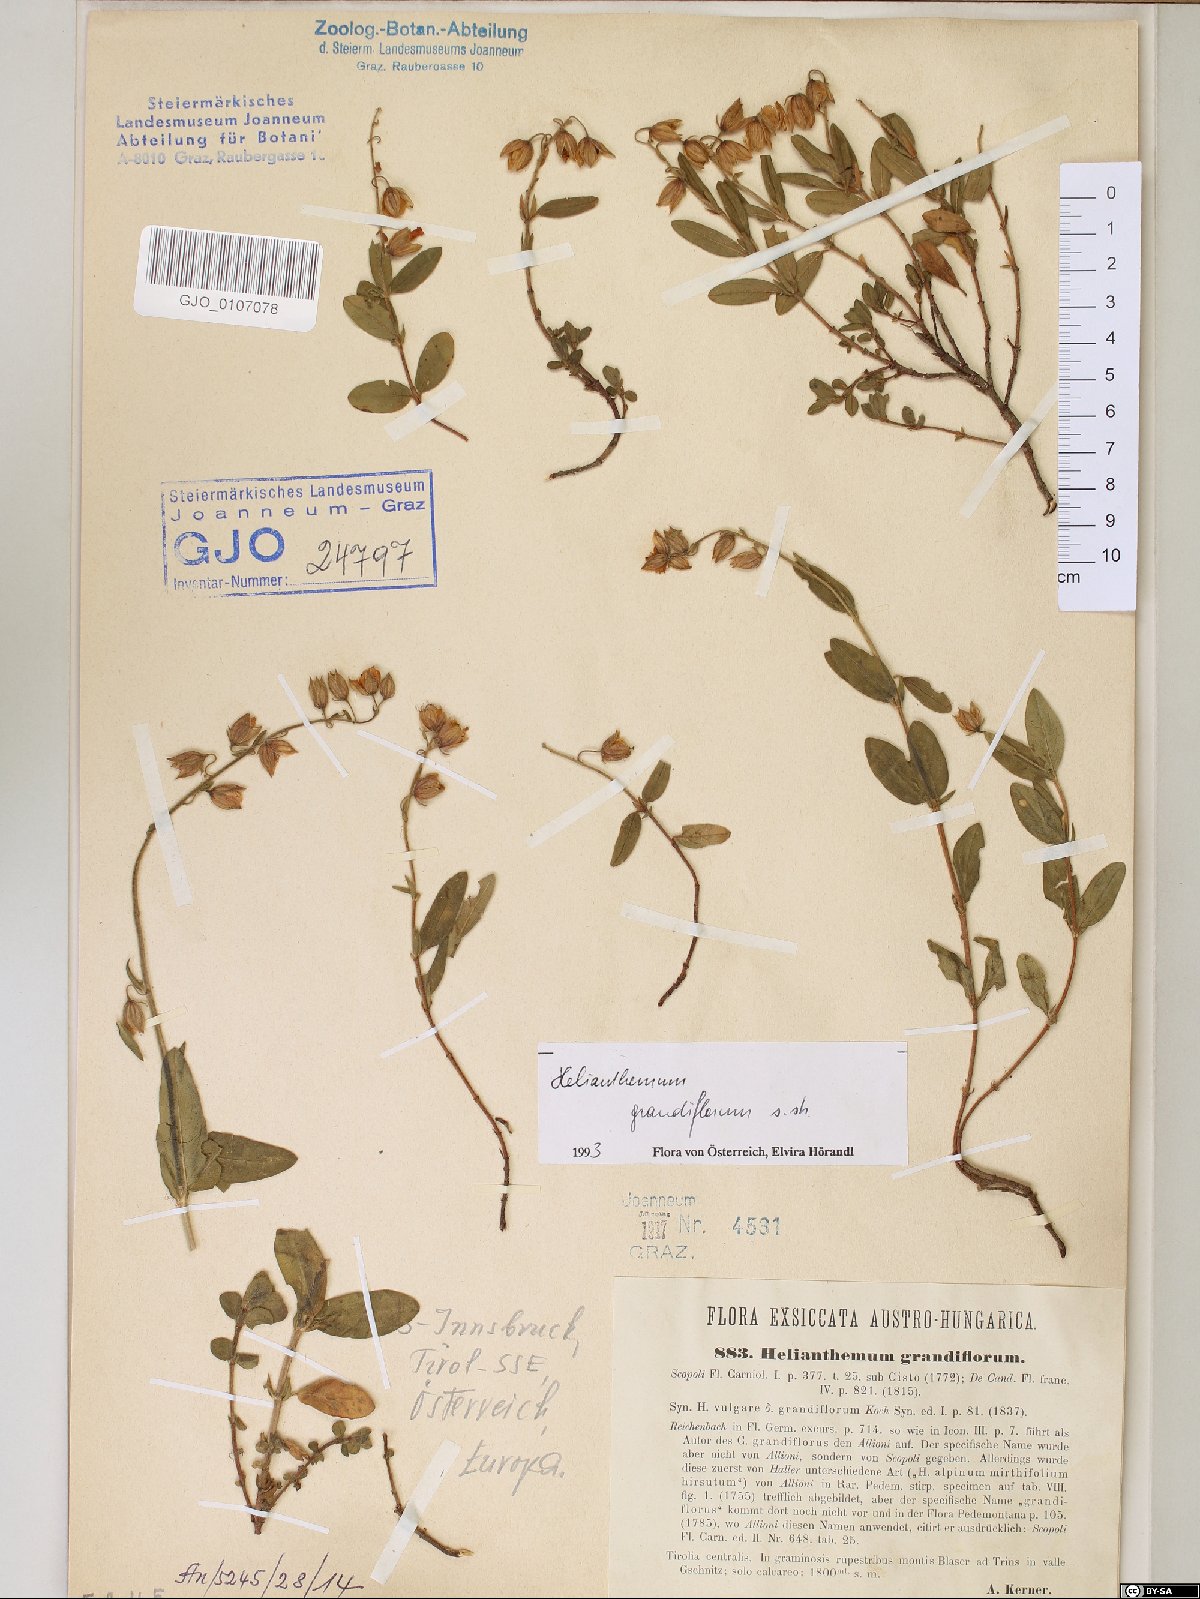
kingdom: Plantae
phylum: Tracheophyta
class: Magnoliopsida
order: Malvales
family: Cistaceae
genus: Helianthemum
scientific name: Helianthemum nummularium
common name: Common rock-rose
